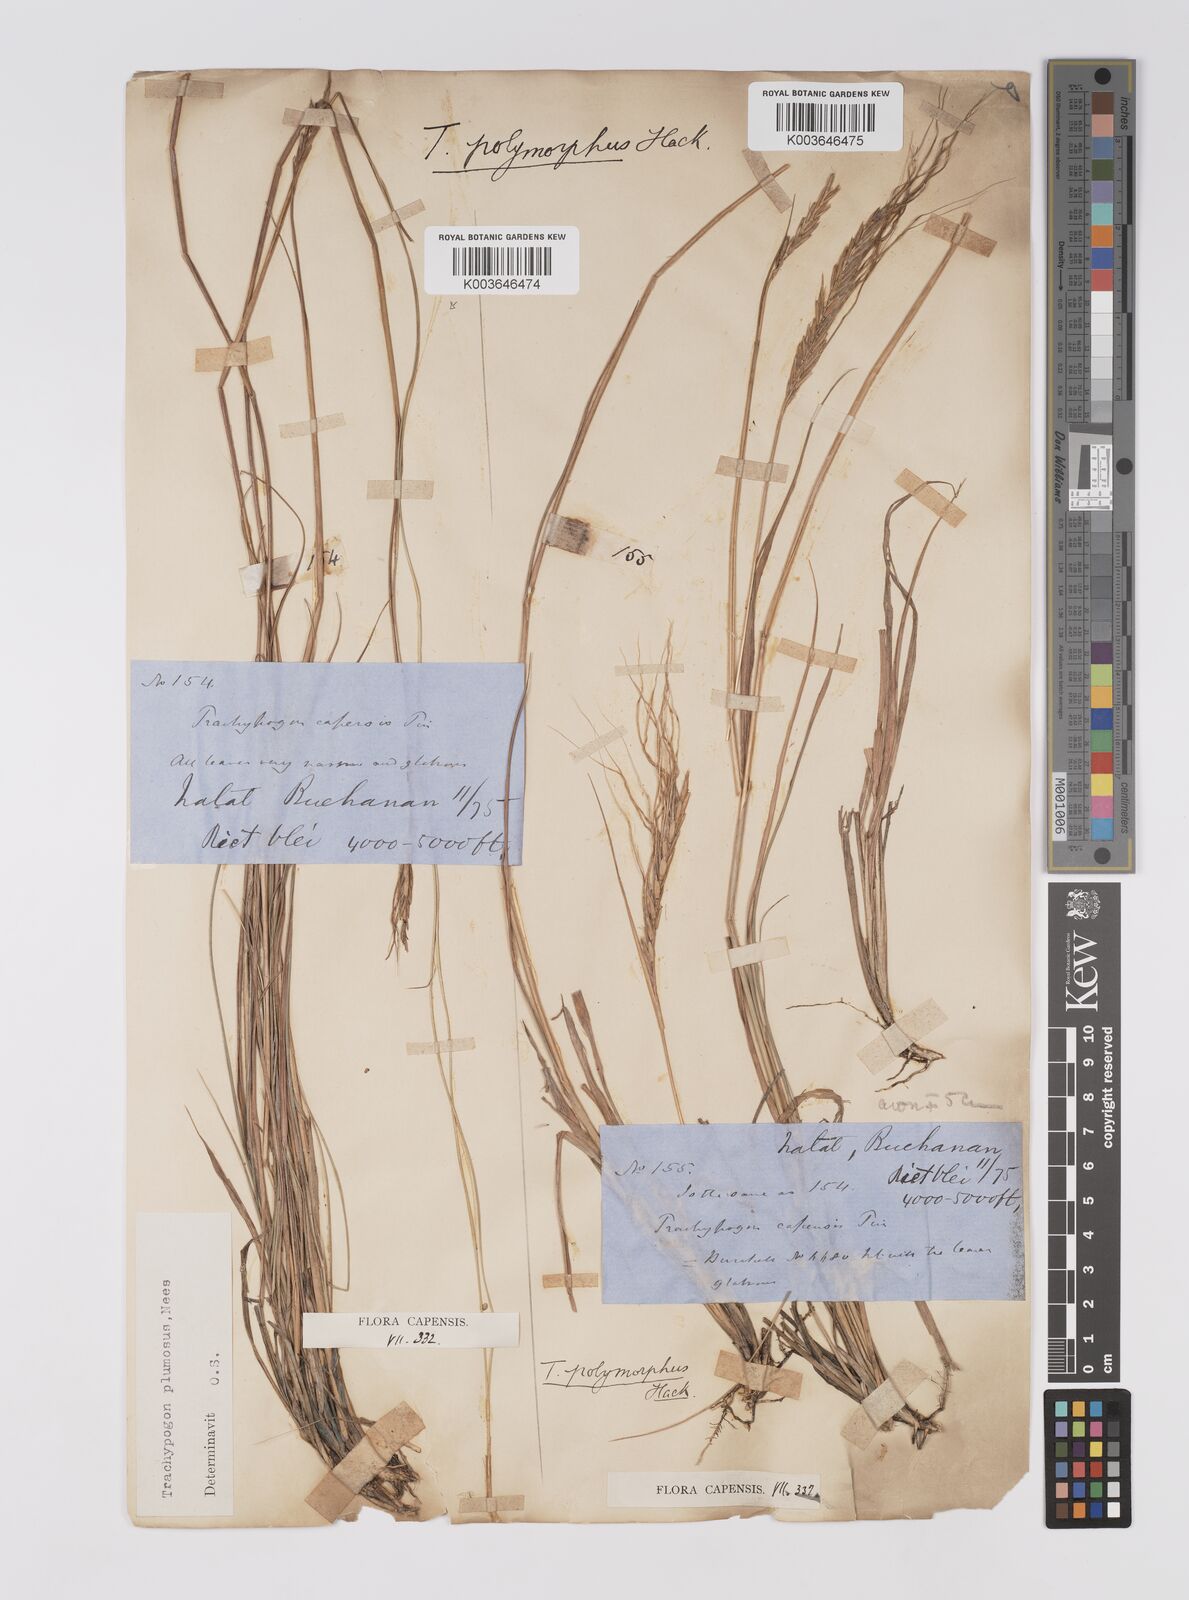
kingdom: Plantae
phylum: Tracheophyta
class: Liliopsida
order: Poales
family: Poaceae
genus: Trachypogon
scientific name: Trachypogon spicatus
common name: Crinkle-awn
